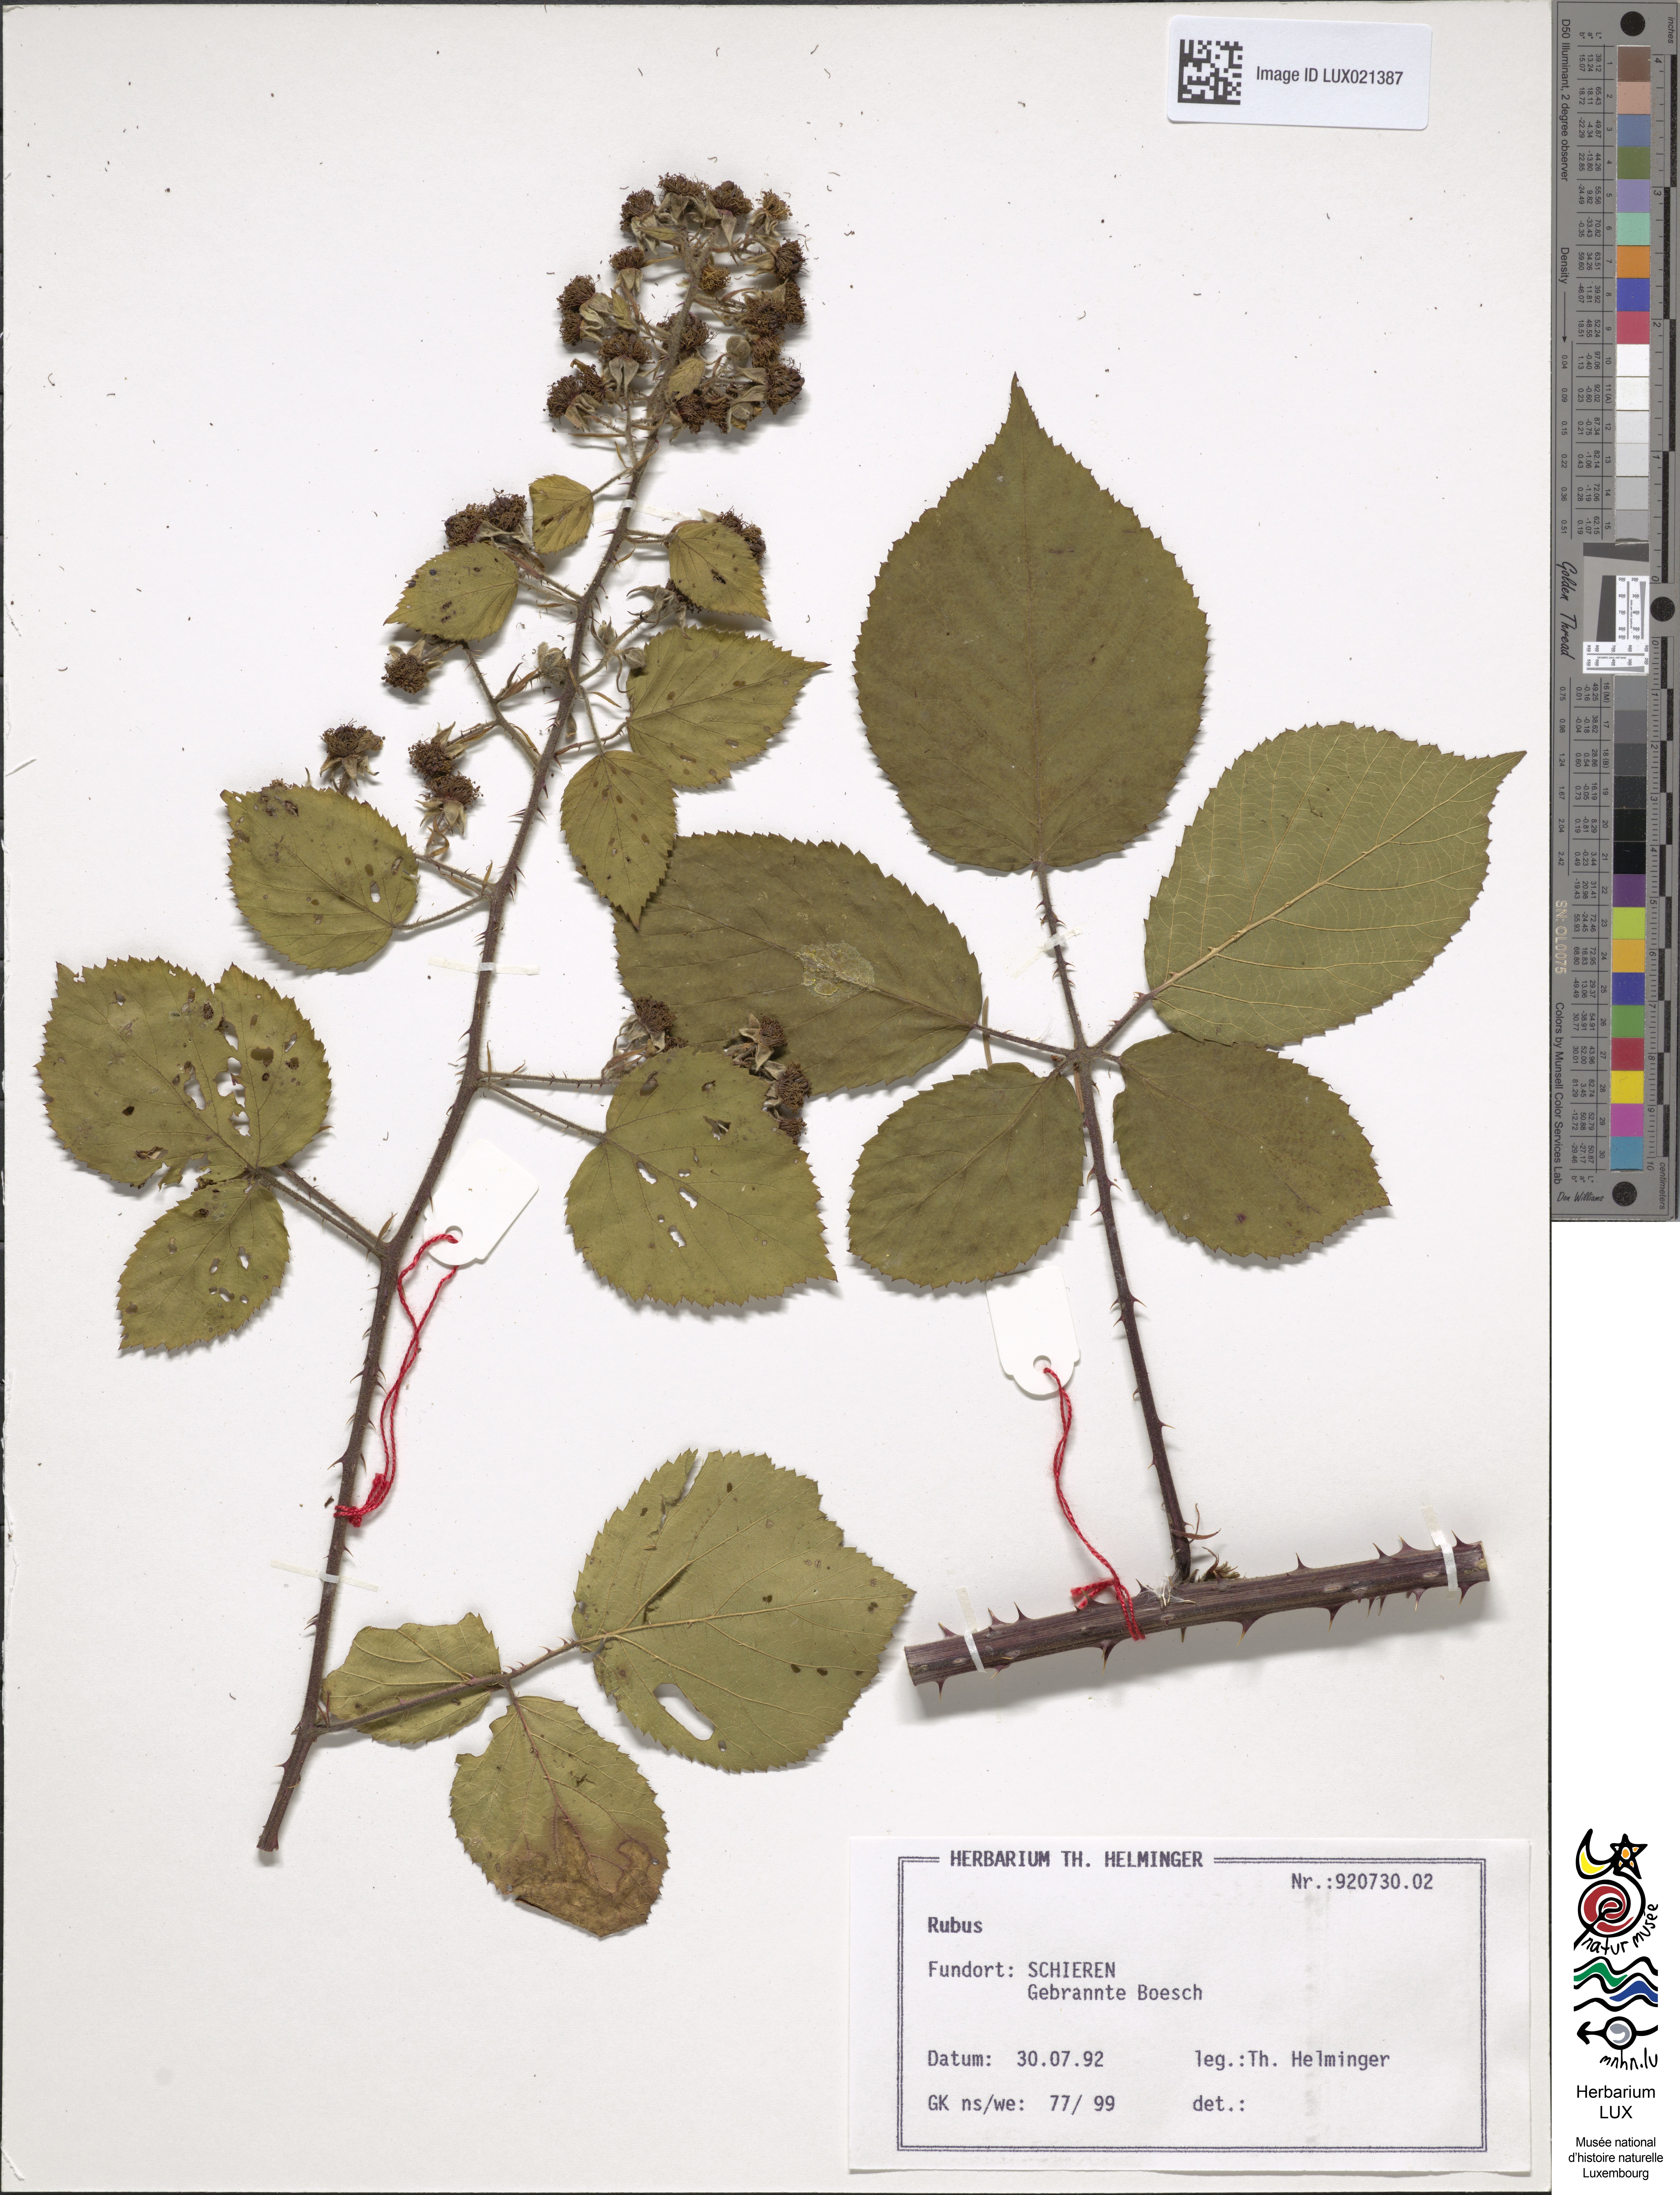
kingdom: Plantae
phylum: Tracheophyta
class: Magnoliopsida
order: Rosales
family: Rosaceae
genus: Rubus
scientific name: Rubus
